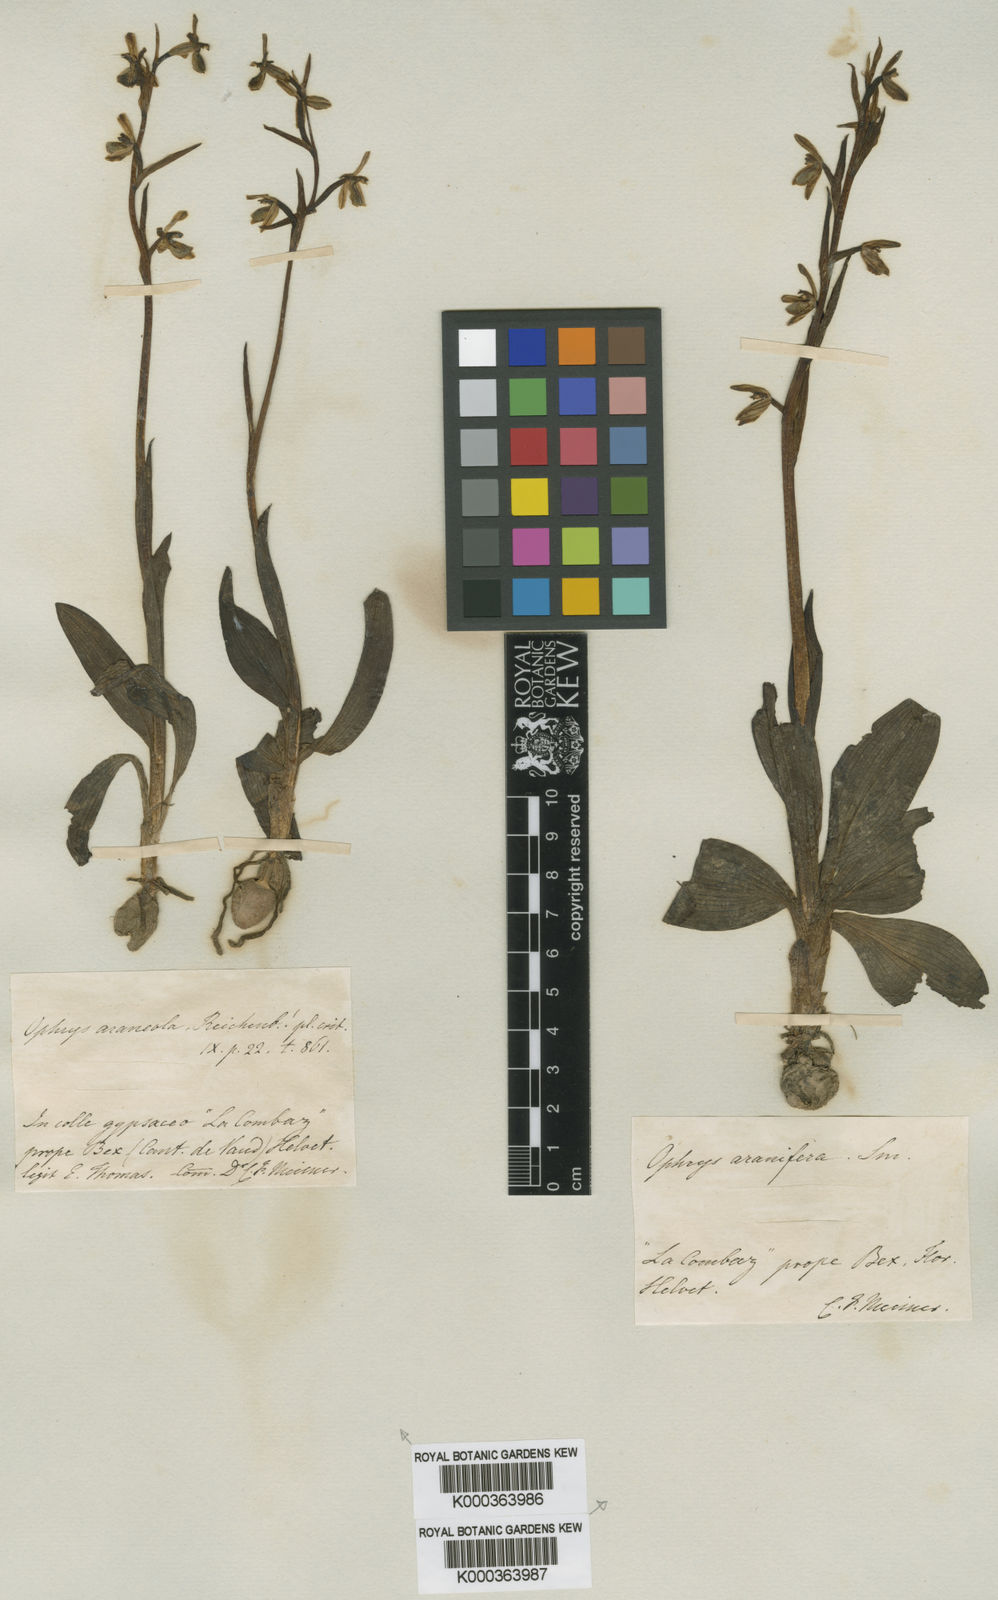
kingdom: Plantae
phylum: Tracheophyta
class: Liliopsida
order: Asparagales
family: Orchidaceae
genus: Ophrys
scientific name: Ophrys sphegodes
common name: Early spider-orchid
